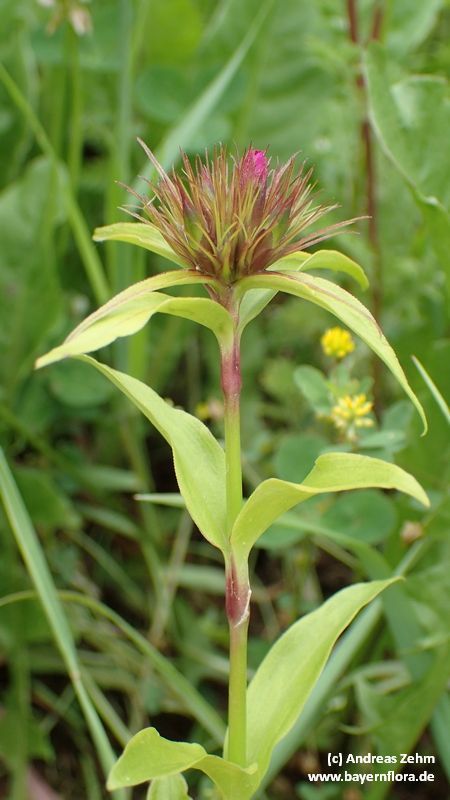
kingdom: Plantae
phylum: Tracheophyta
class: Magnoliopsida
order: Caryophyllales
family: Caryophyllaceae
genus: Dianthus
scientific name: Dianthus barbatus
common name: Sweet-william
